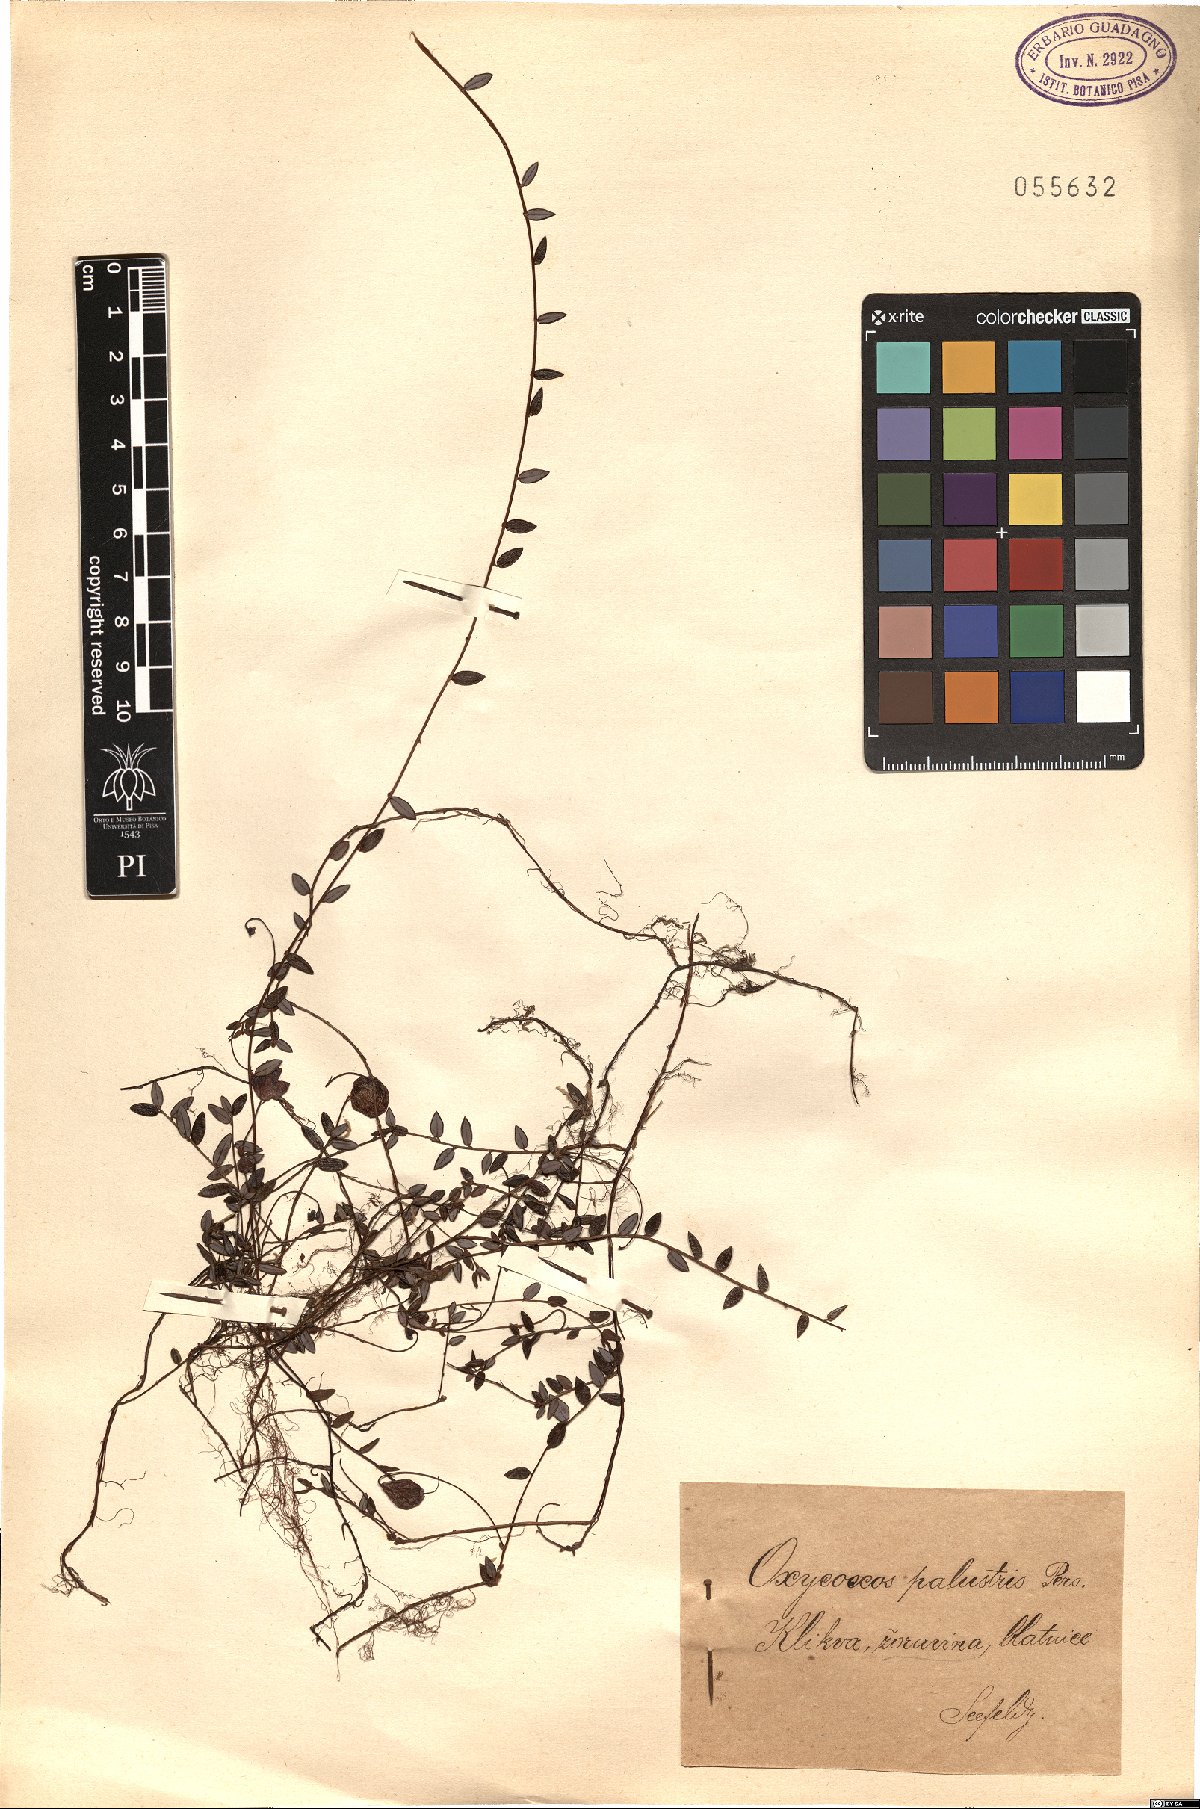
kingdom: Plantae
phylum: Tracheophyta
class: Magnoliopsida
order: Ericales
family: Ericaceae
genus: Vaccinium
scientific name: Vaccinium oxycoccos
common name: Cranberry
